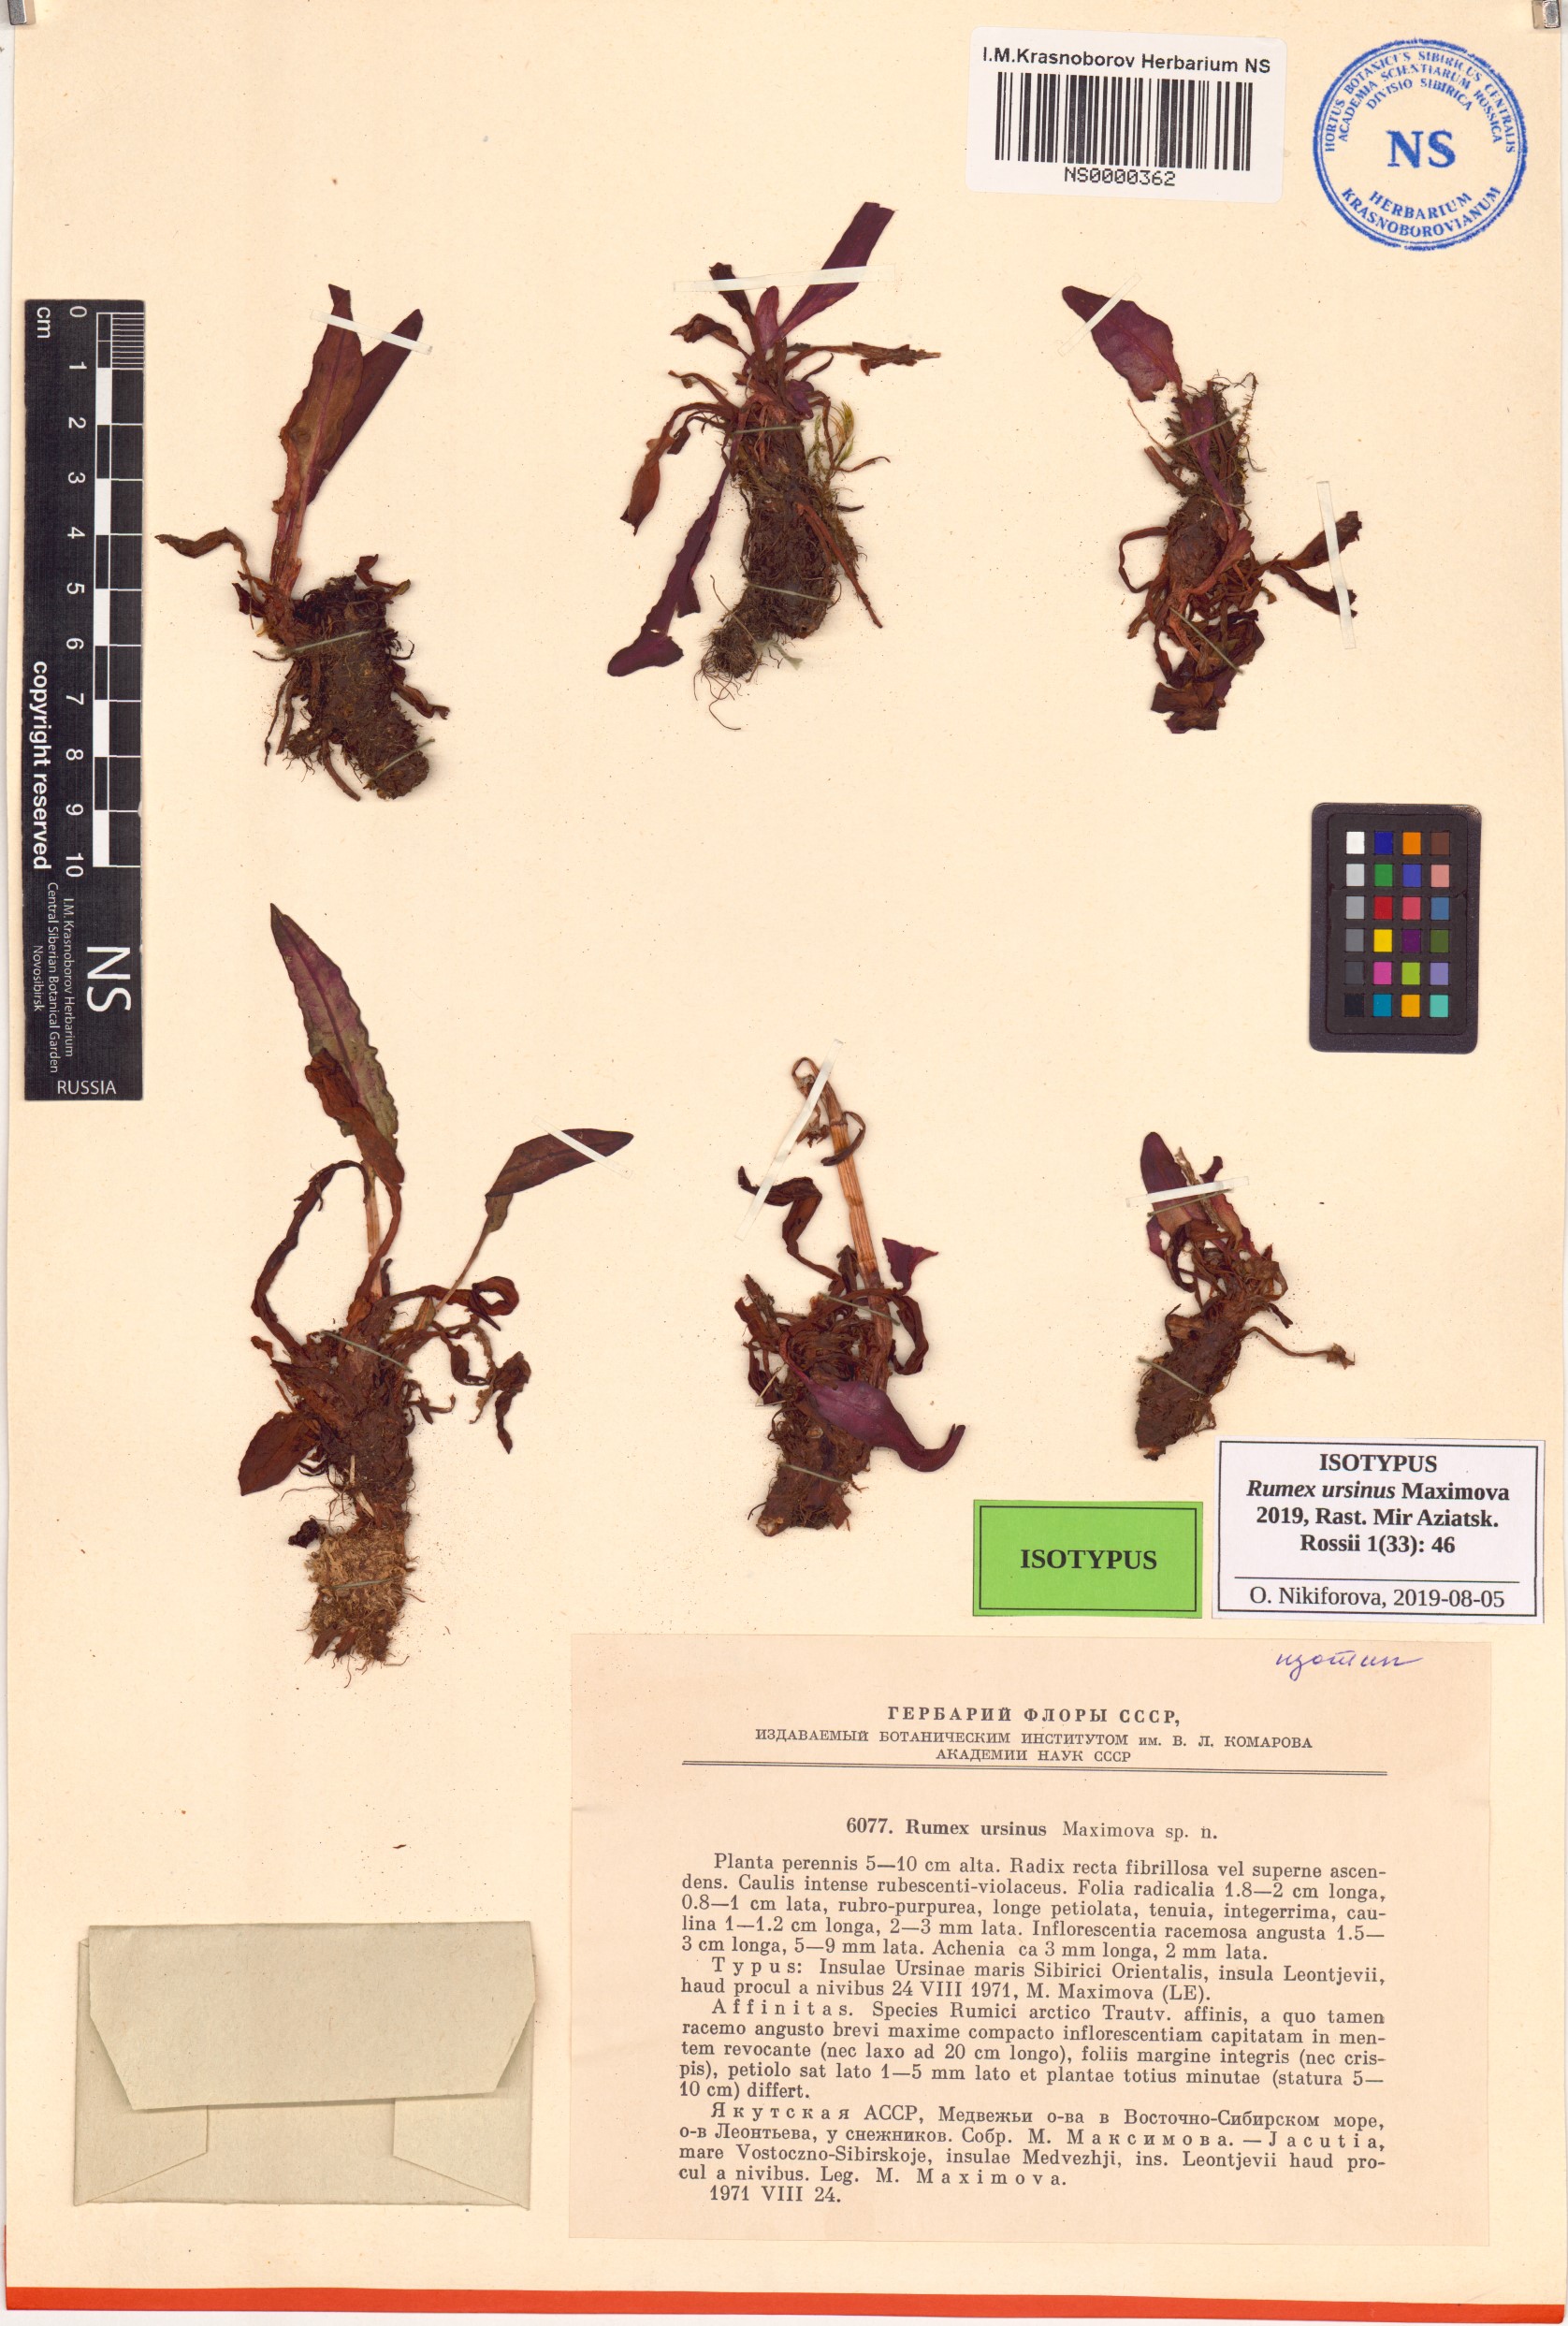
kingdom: Plantae
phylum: Tracheophyta
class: Magnoliopsida
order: Caryophyllales
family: Polygonaceae
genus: Rumex
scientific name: Rumex arcticus
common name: Arctic dock
